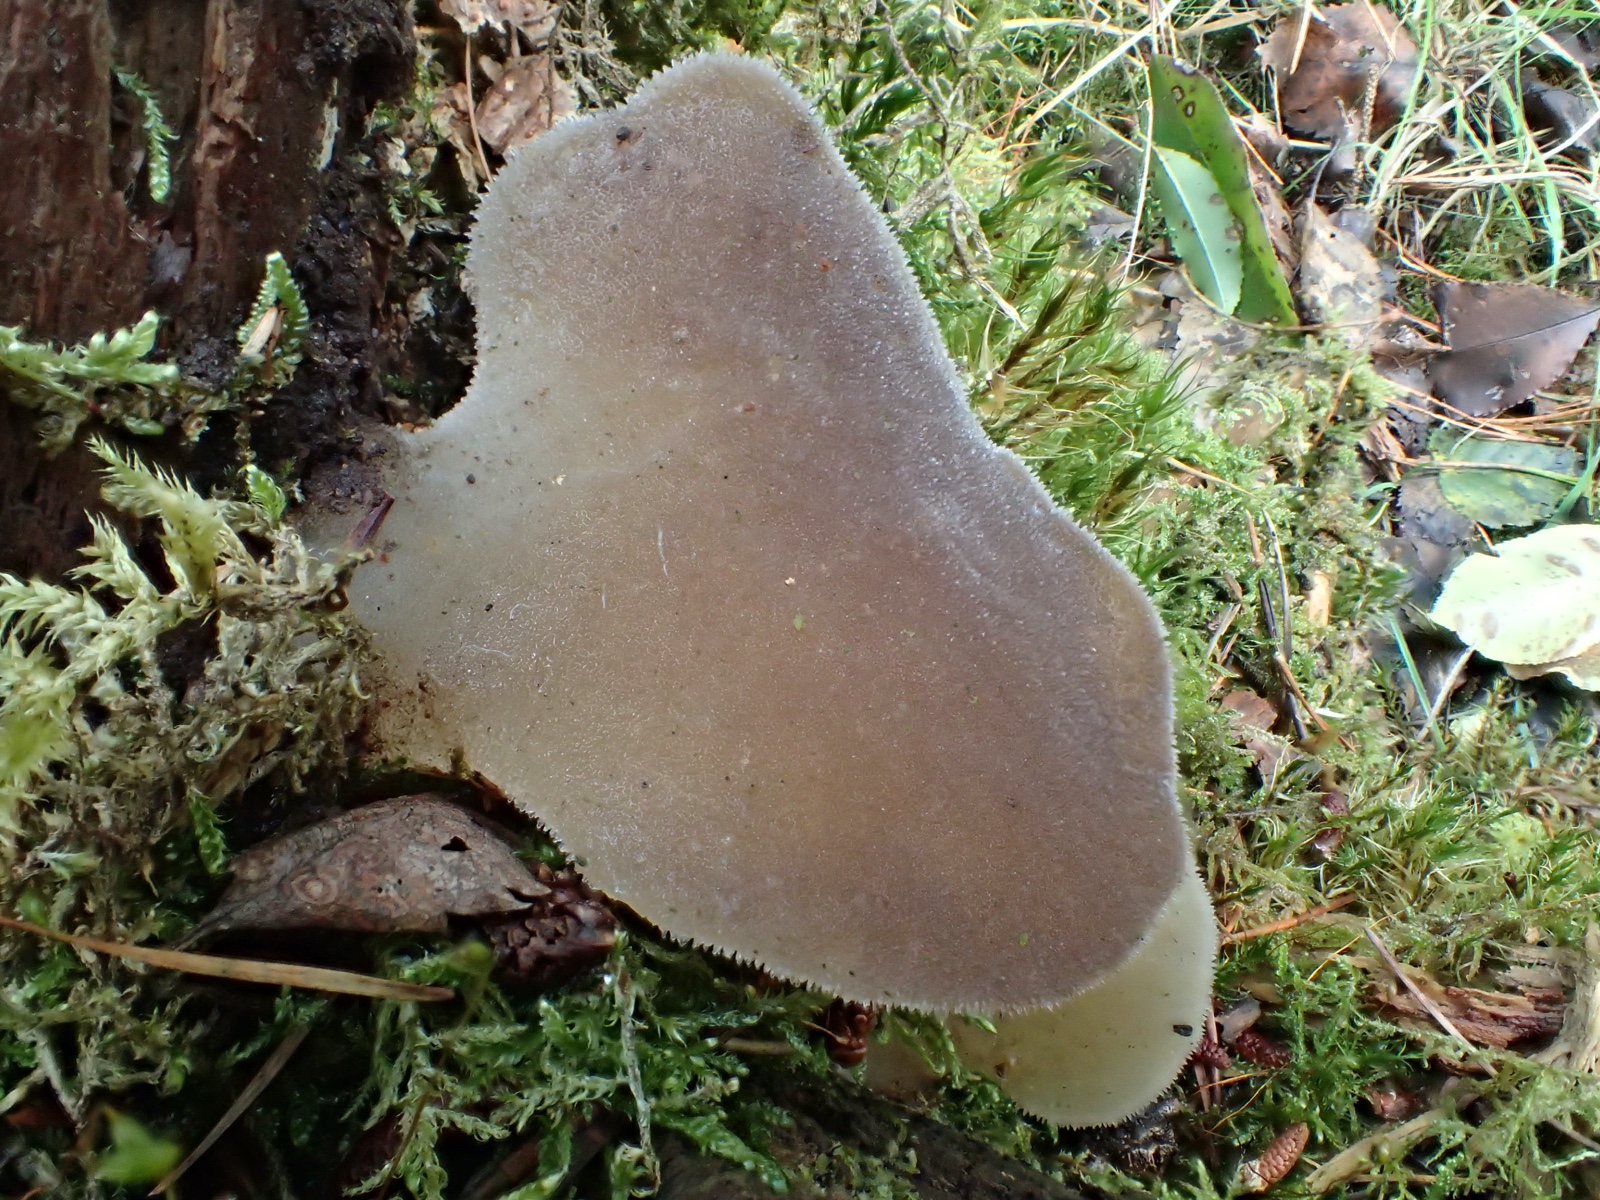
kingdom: Fungi
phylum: Basidiomycota
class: Agaricomycetes
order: Auriculariales
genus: Pseudohydnum
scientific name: Pseudohydnum gelatinosum
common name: bævretand
